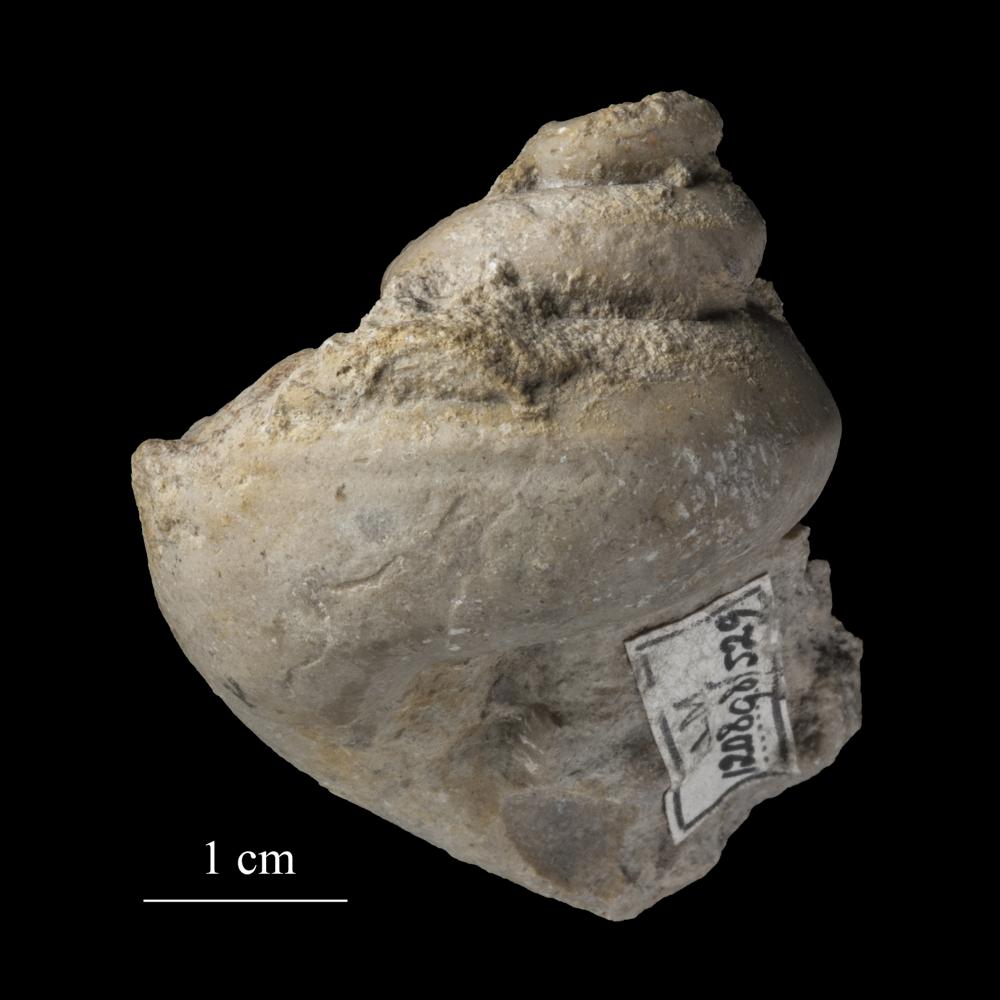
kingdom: Animalia
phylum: Mollusca
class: Gastropoda
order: Pleurotomariida
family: Phymatopleuridae
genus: Worthenia
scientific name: Worthenia
